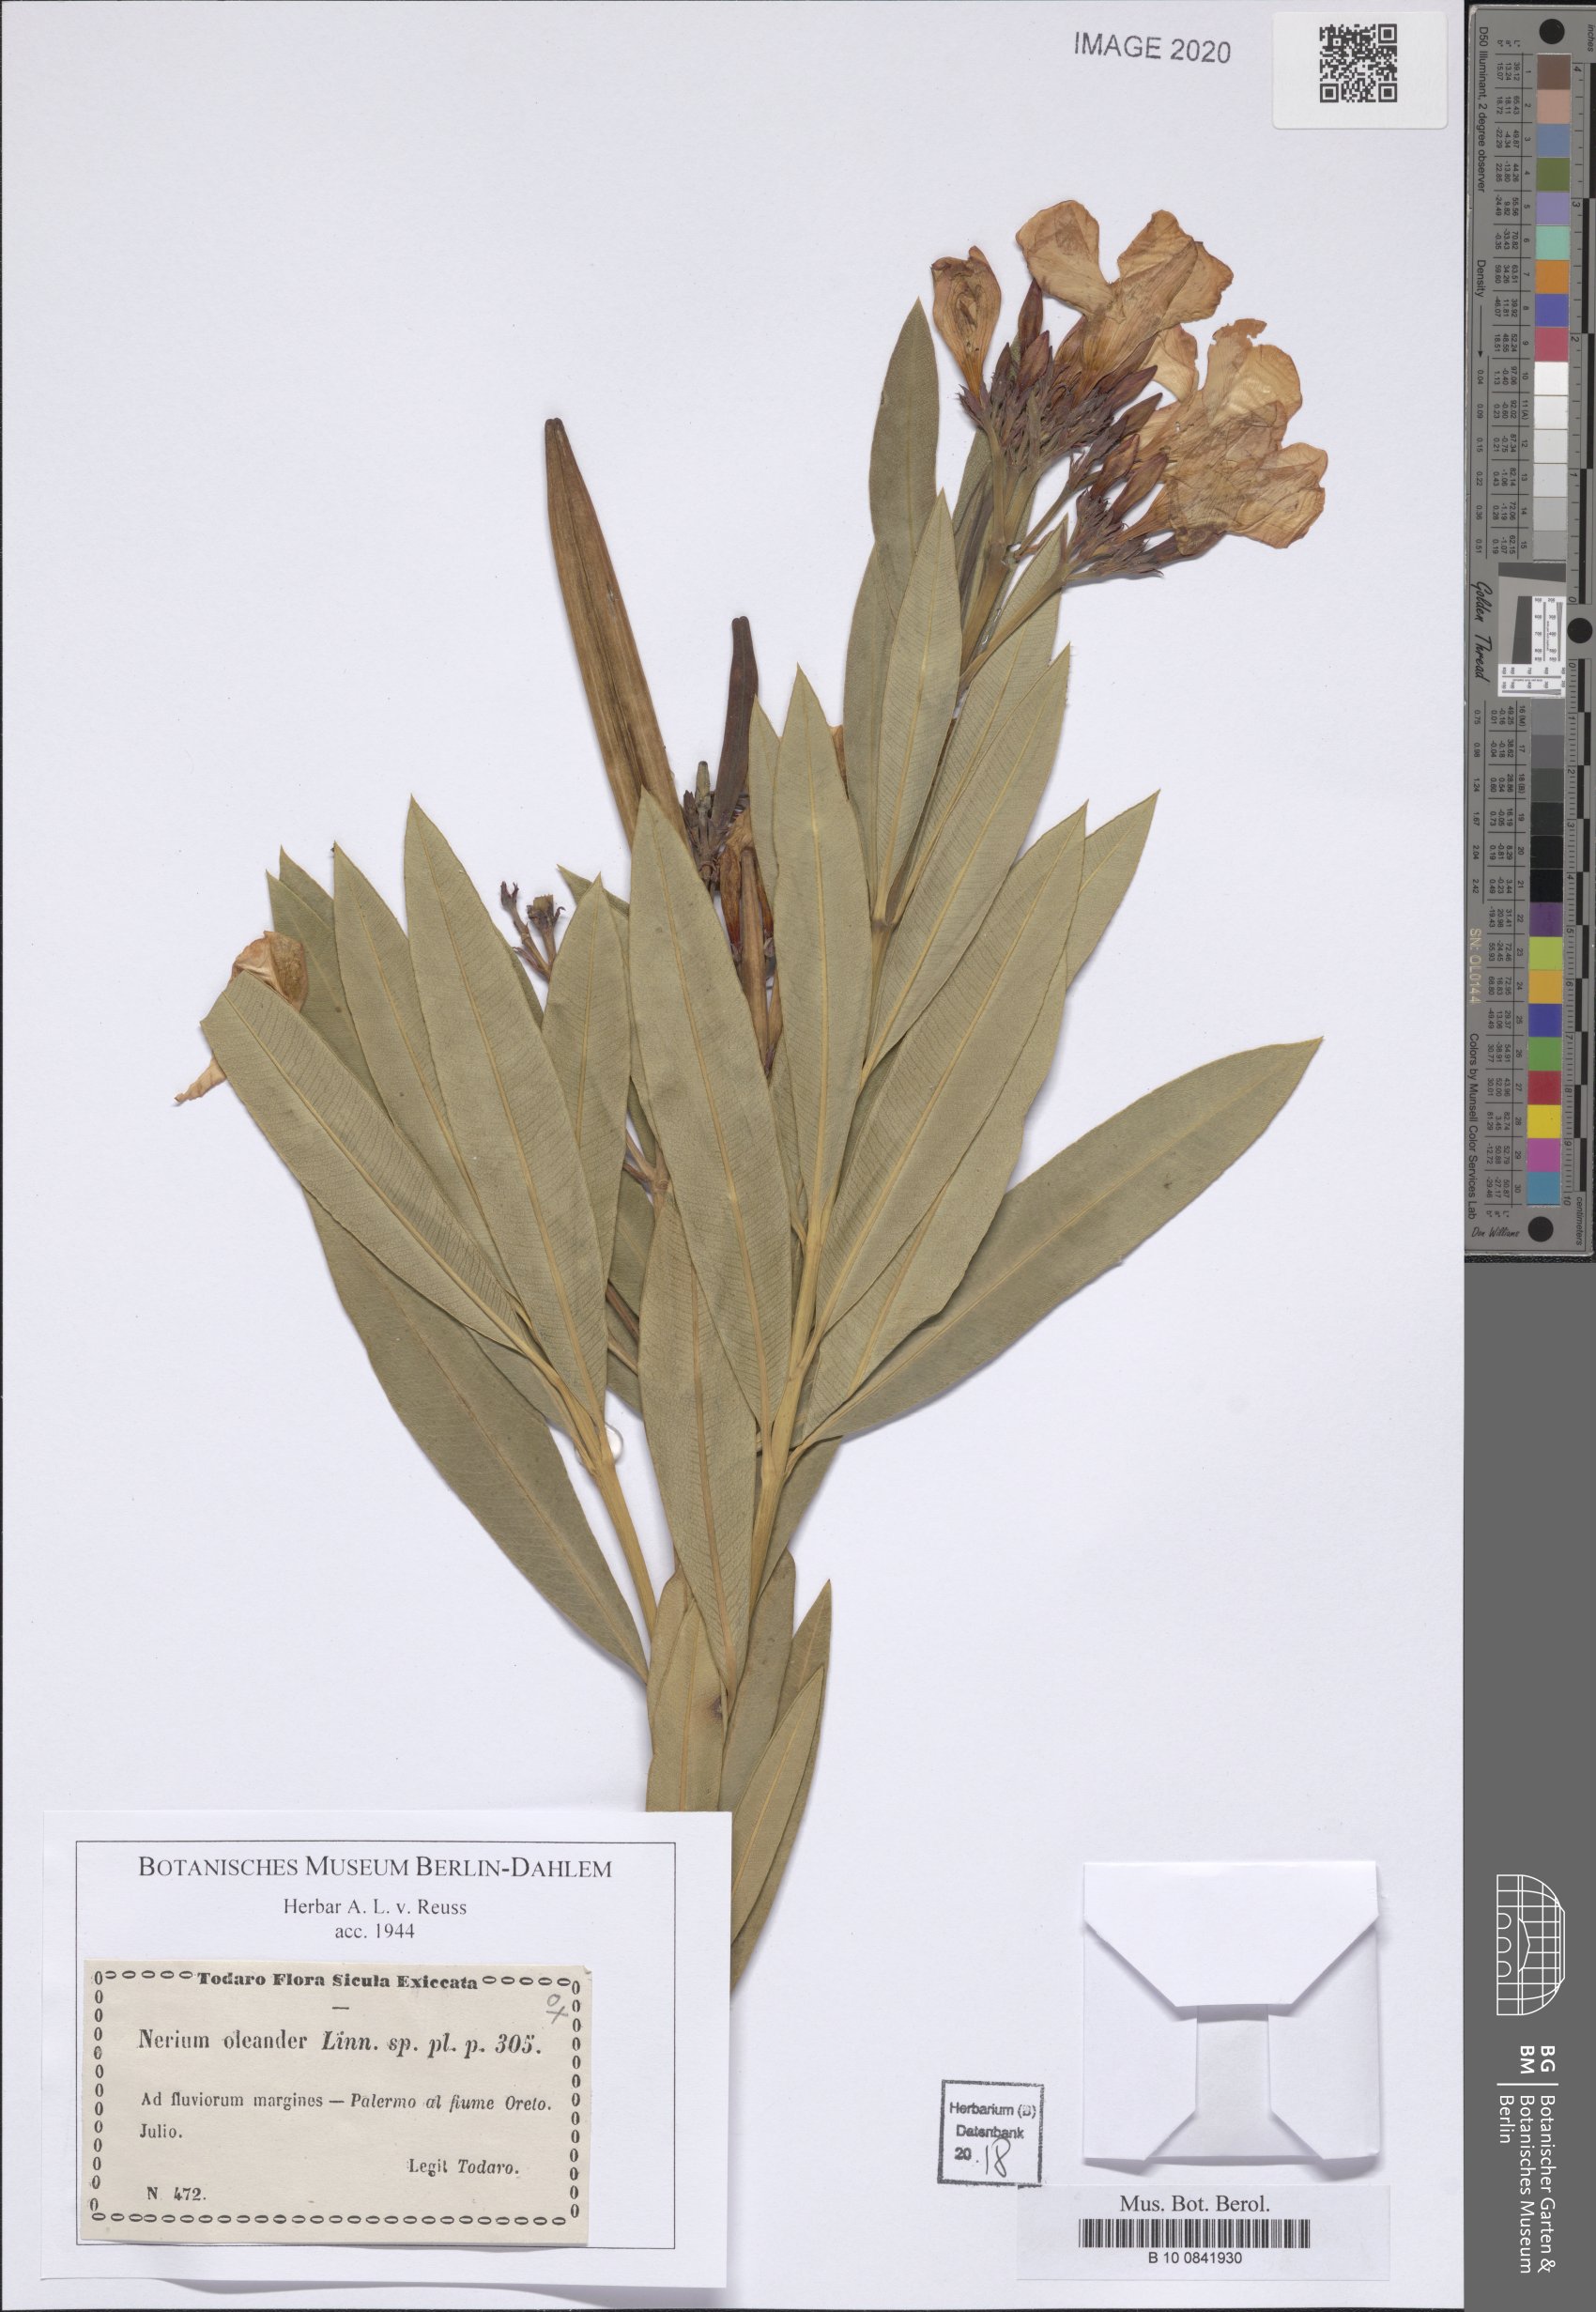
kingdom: Plantae
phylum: Tracheophyta
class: Magnoliopsida
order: Gentianales
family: Apocynaceae
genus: Nerium
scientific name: Nerium oleander
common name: Oleander
